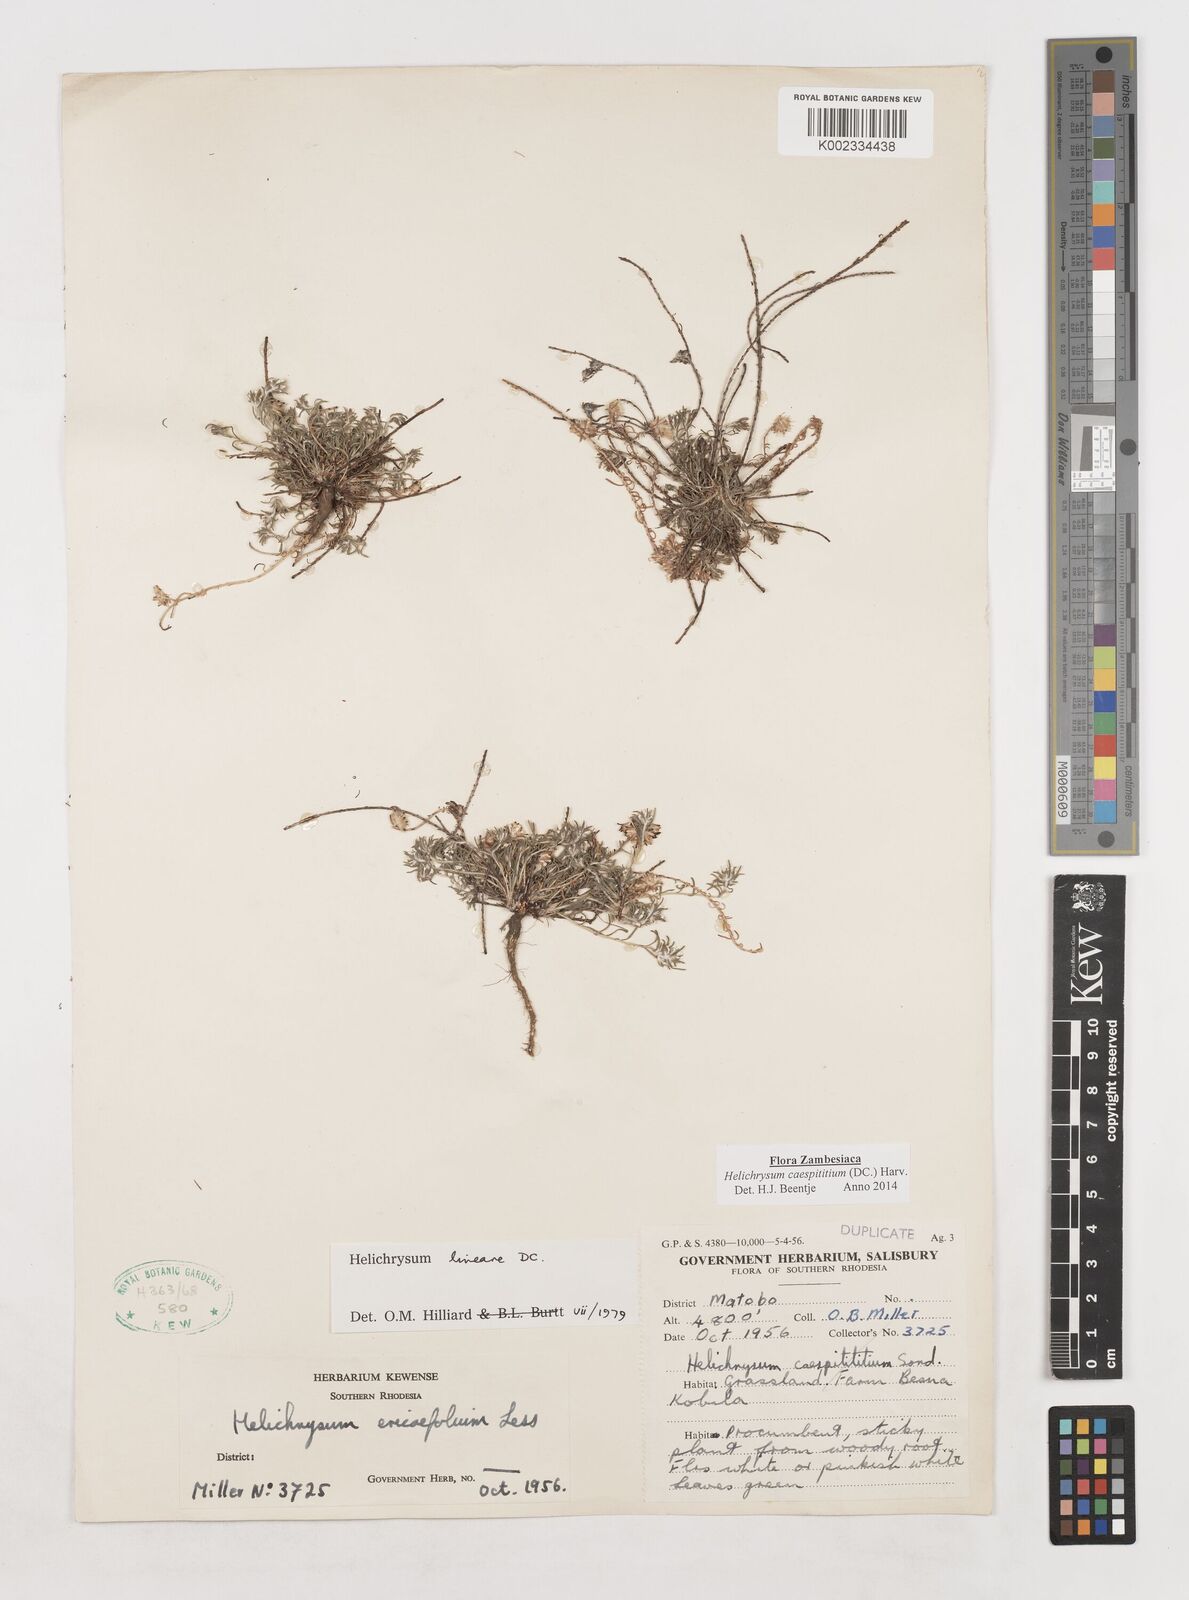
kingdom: Plantae
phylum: Tracheophyta
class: Magnoliopsida
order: Asterales
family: Asteraceae
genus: Helichrysum
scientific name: Helichrysum caespititium
